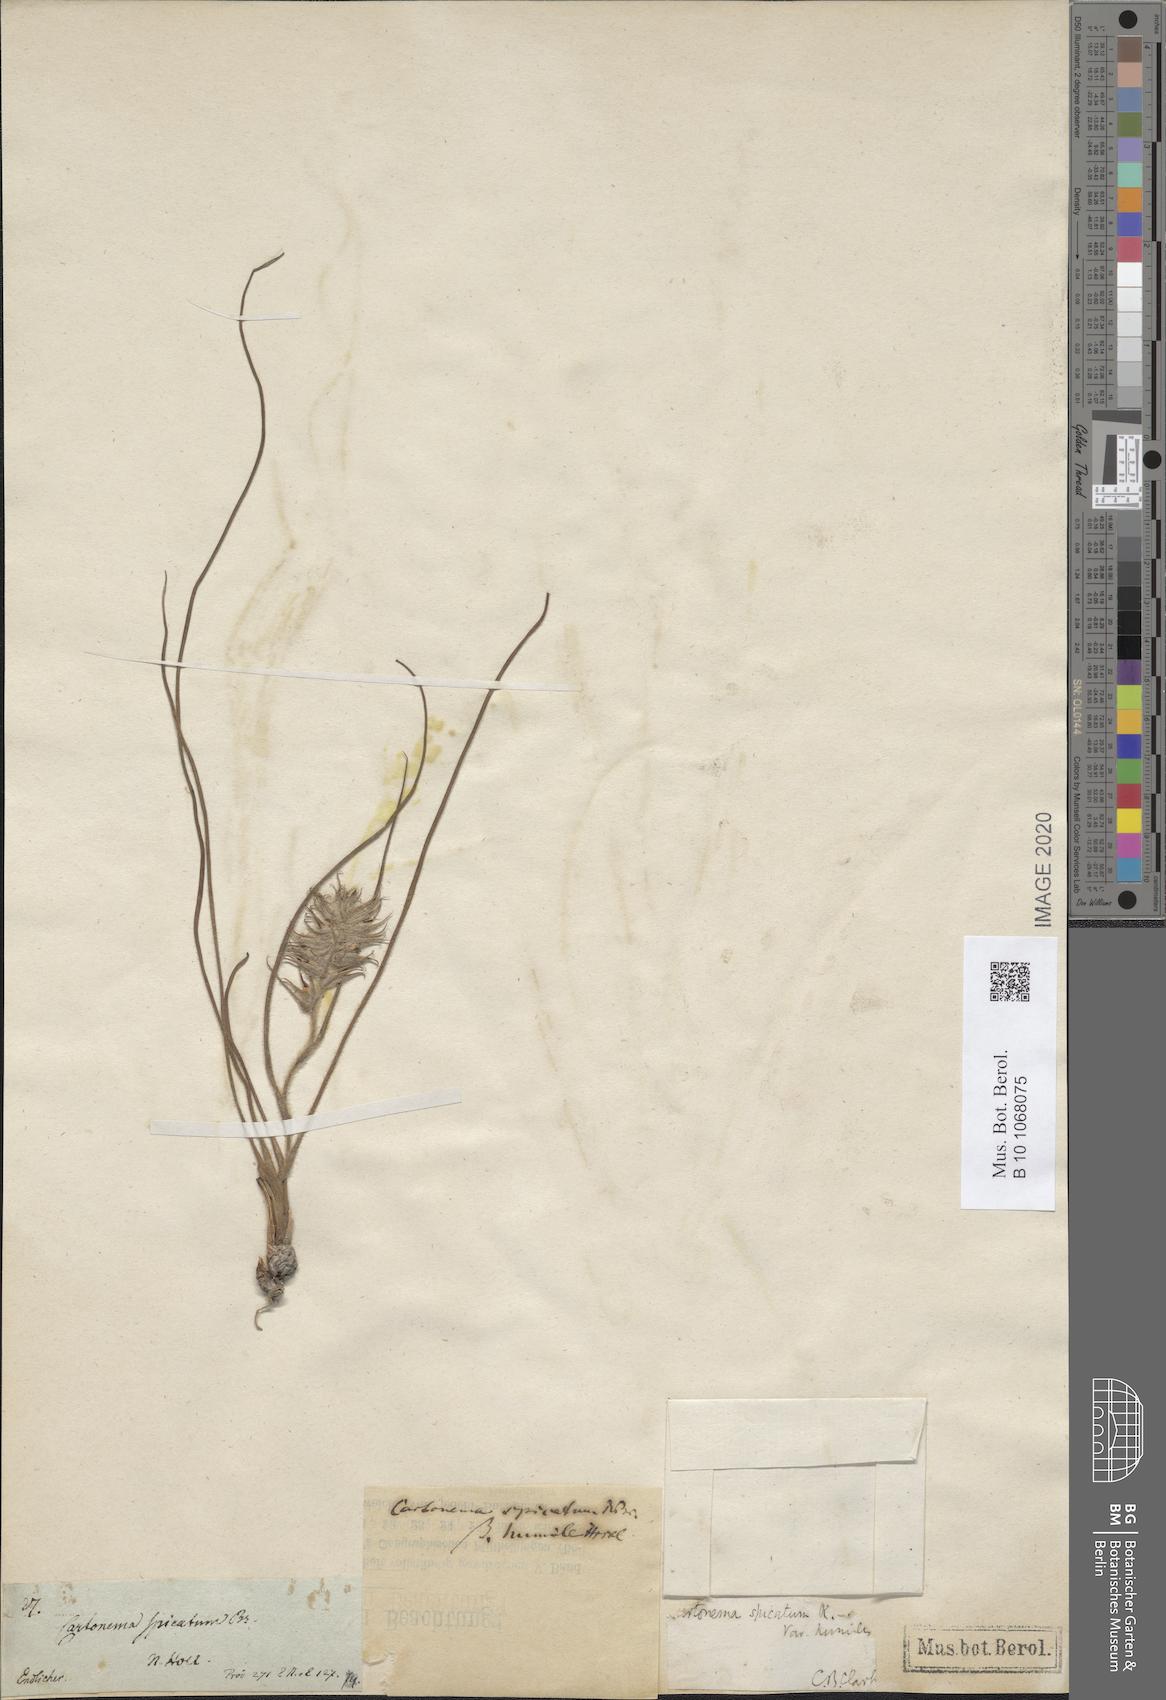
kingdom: Plantae
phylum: Tracheophyta
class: Liliopsida
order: Commelinales
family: Commelinaceae
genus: Cartonema
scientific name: Cartonema spicatum
